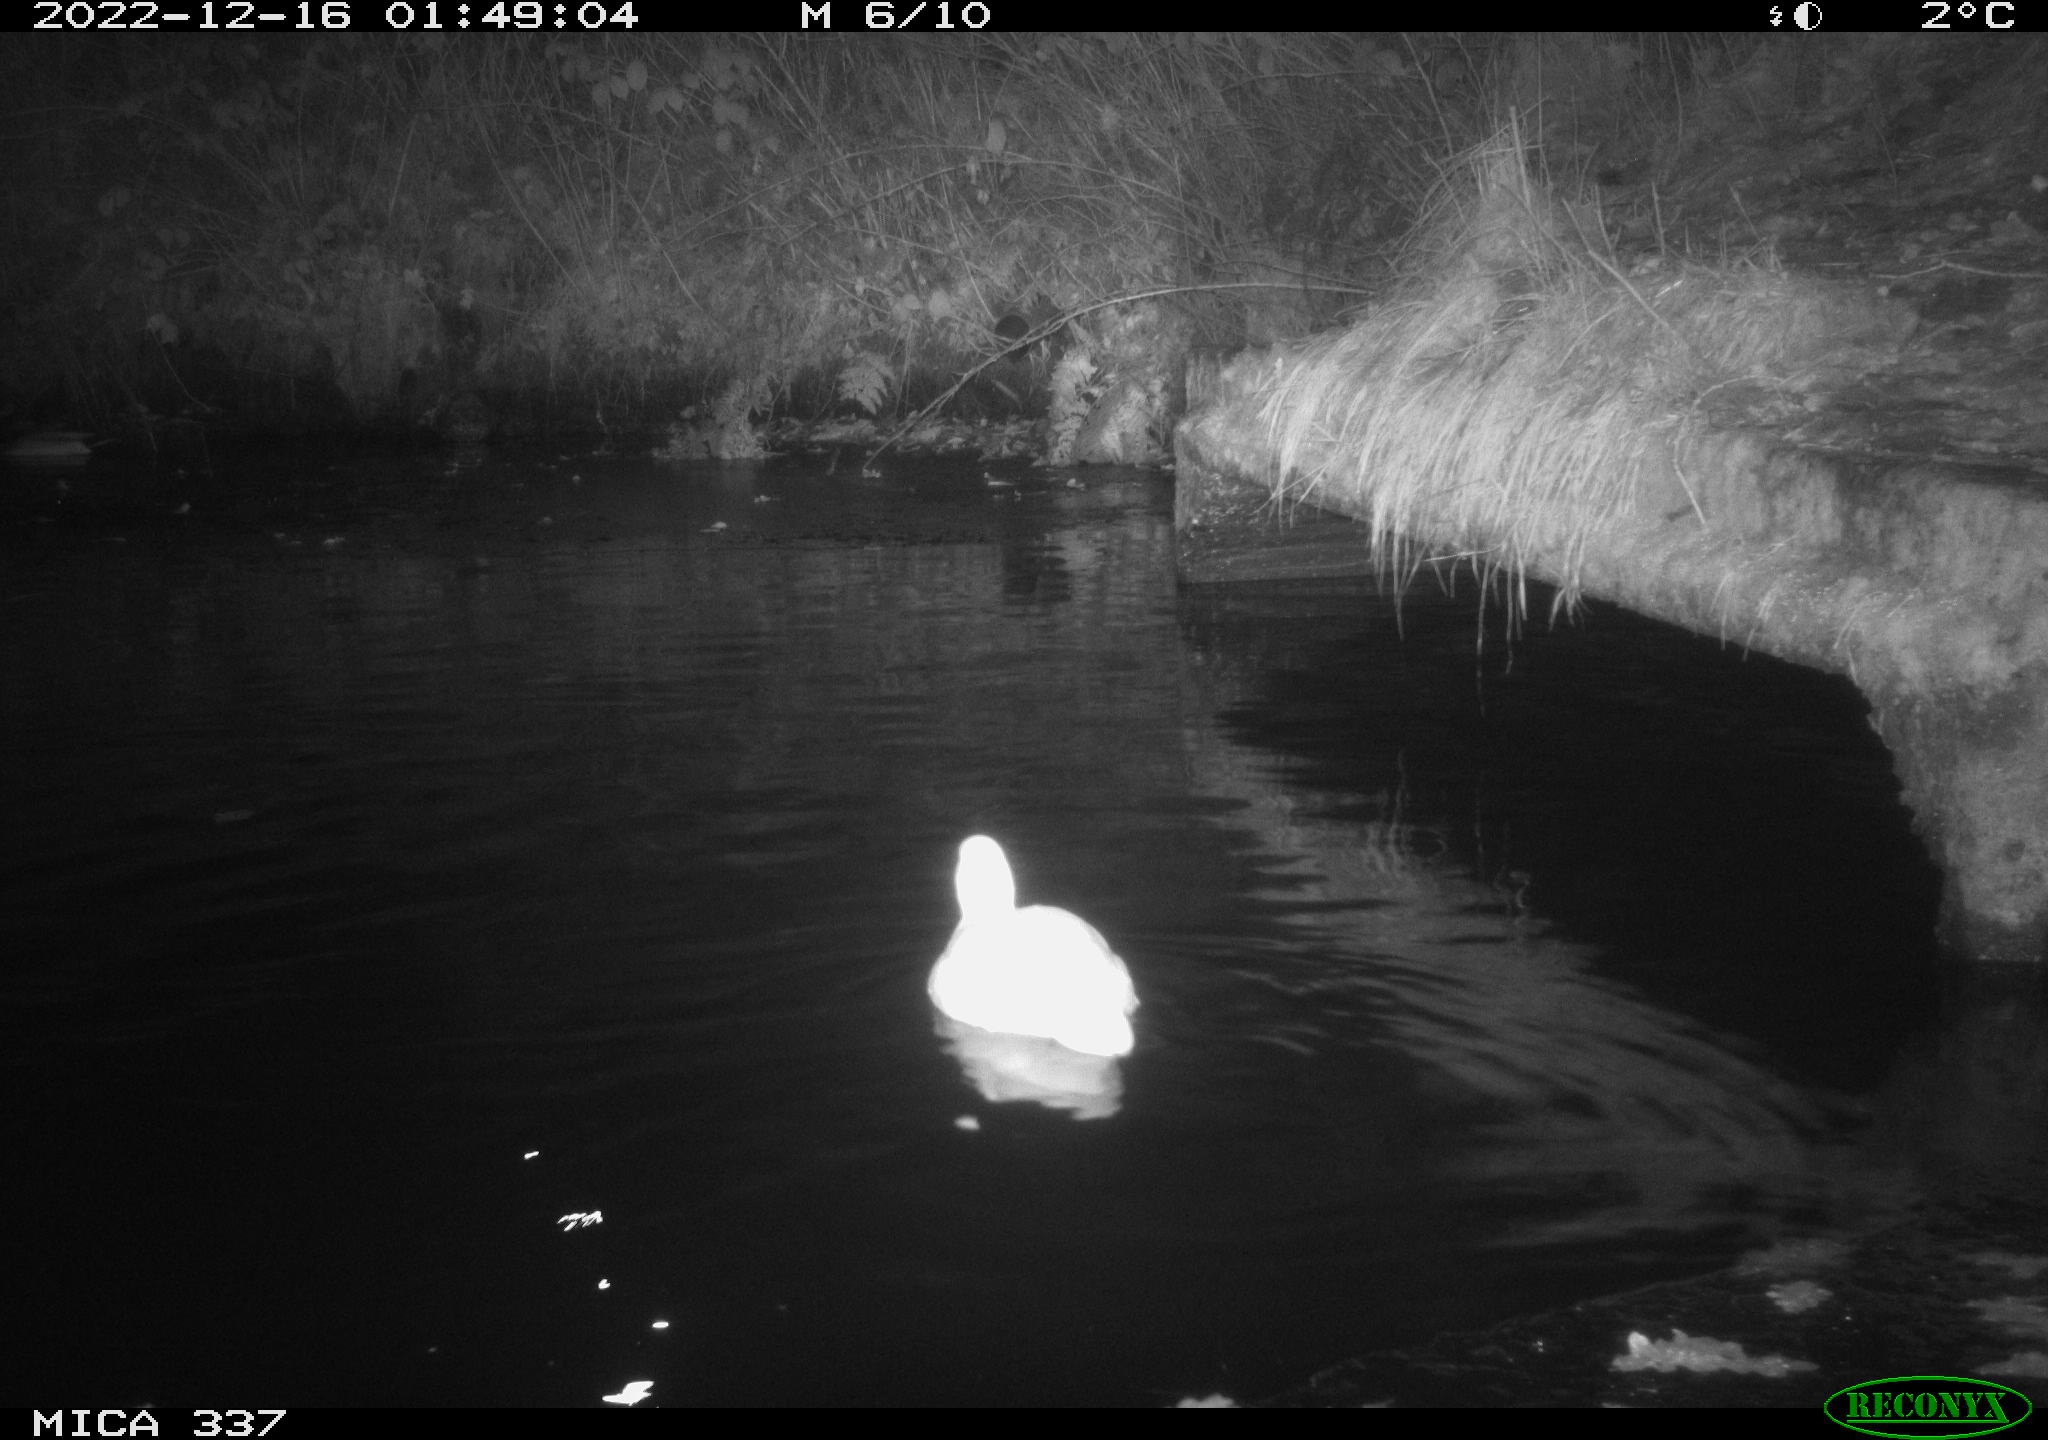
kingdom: Animalia
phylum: Chordata
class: Aves
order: Anseriformes
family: Anatidae
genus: Anas
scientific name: Anas
